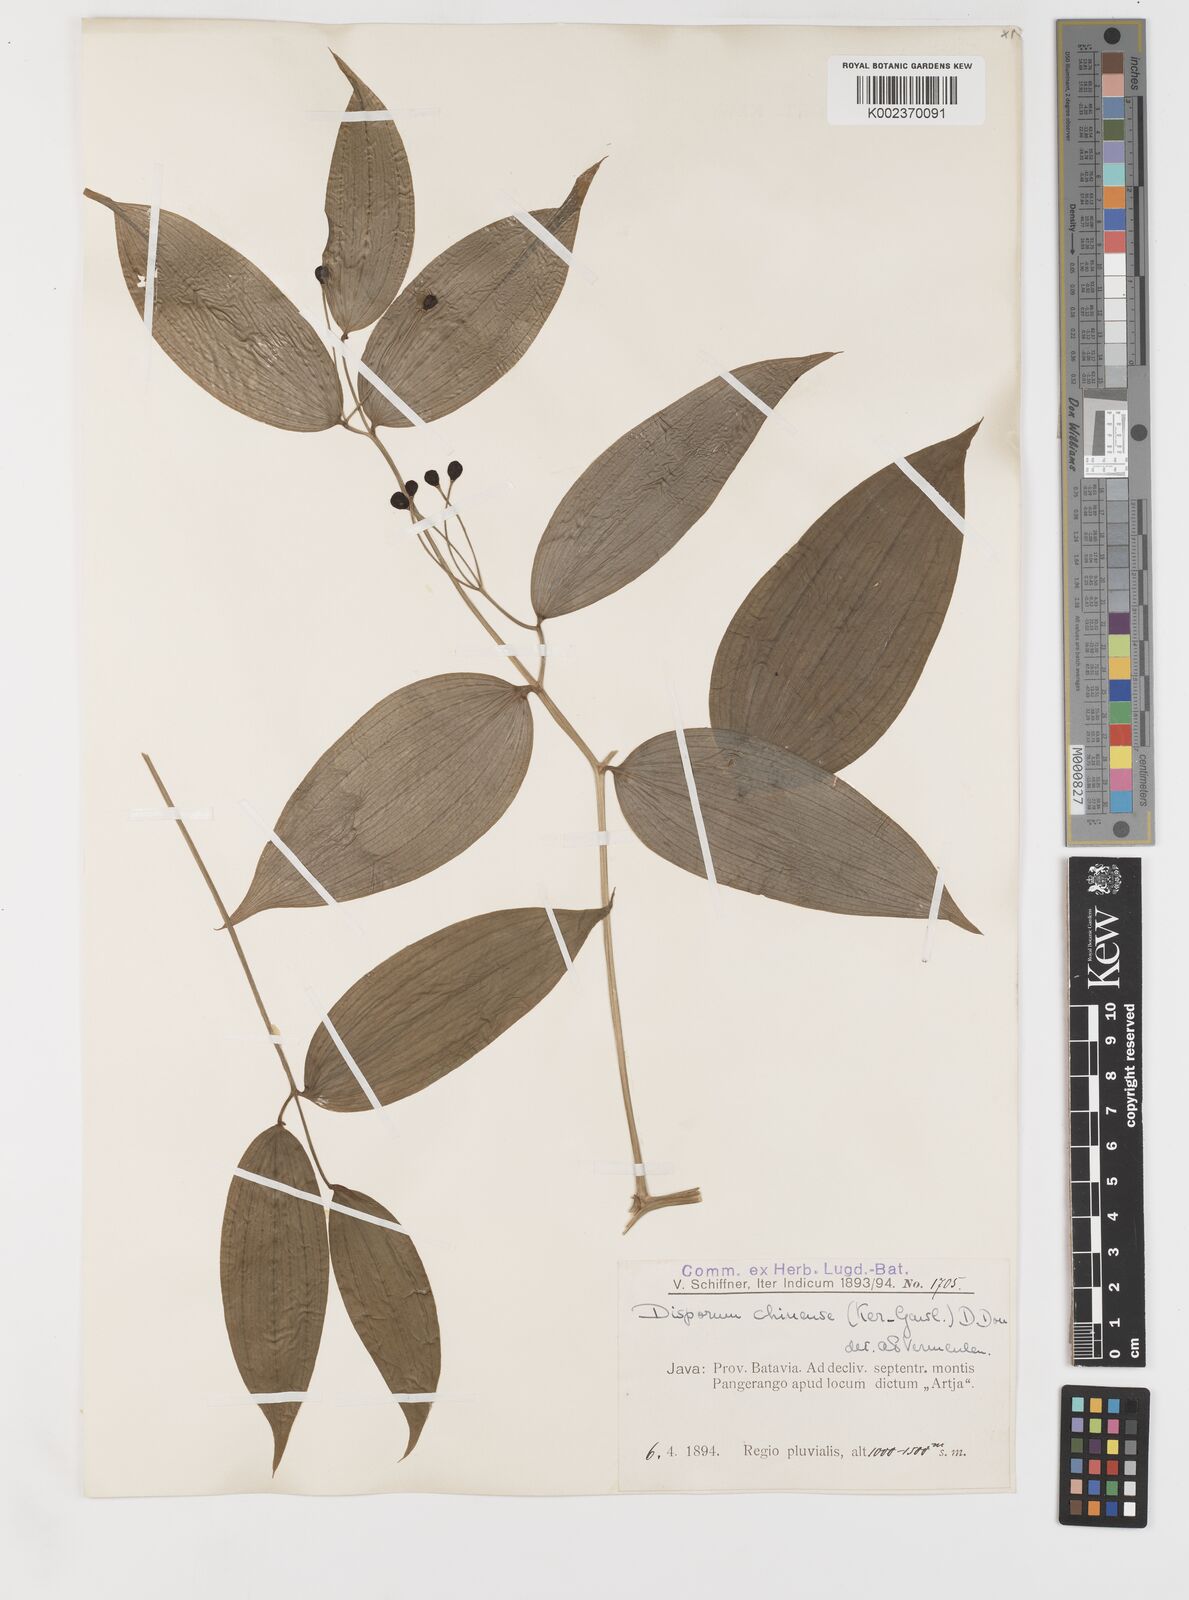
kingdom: Plantae
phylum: Tracheophyta
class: Liliopsida
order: Liliales
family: Colchicaceae
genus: Disporum
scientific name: Disporum cantoniense
